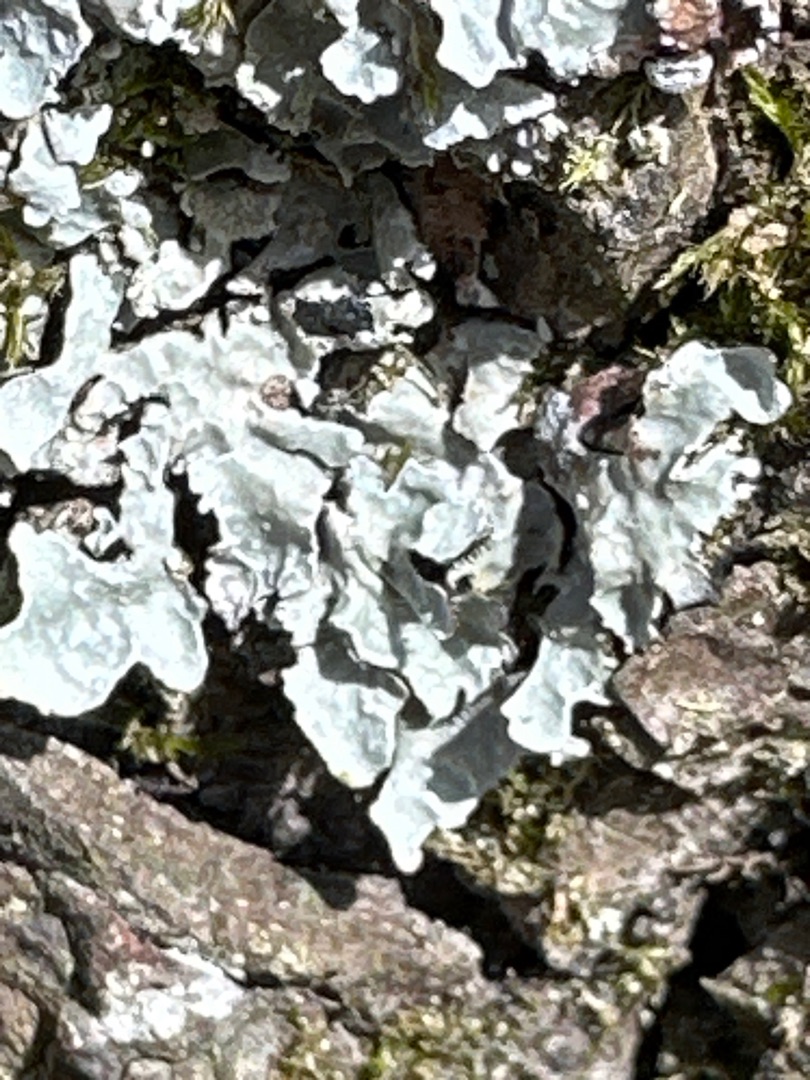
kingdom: Fungi
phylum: Ascomycota
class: Lecanoromycetes
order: Lecanorales
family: Parmeliaceae
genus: Parmelia
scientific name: Parmelia sulcata
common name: Rynket skållav
